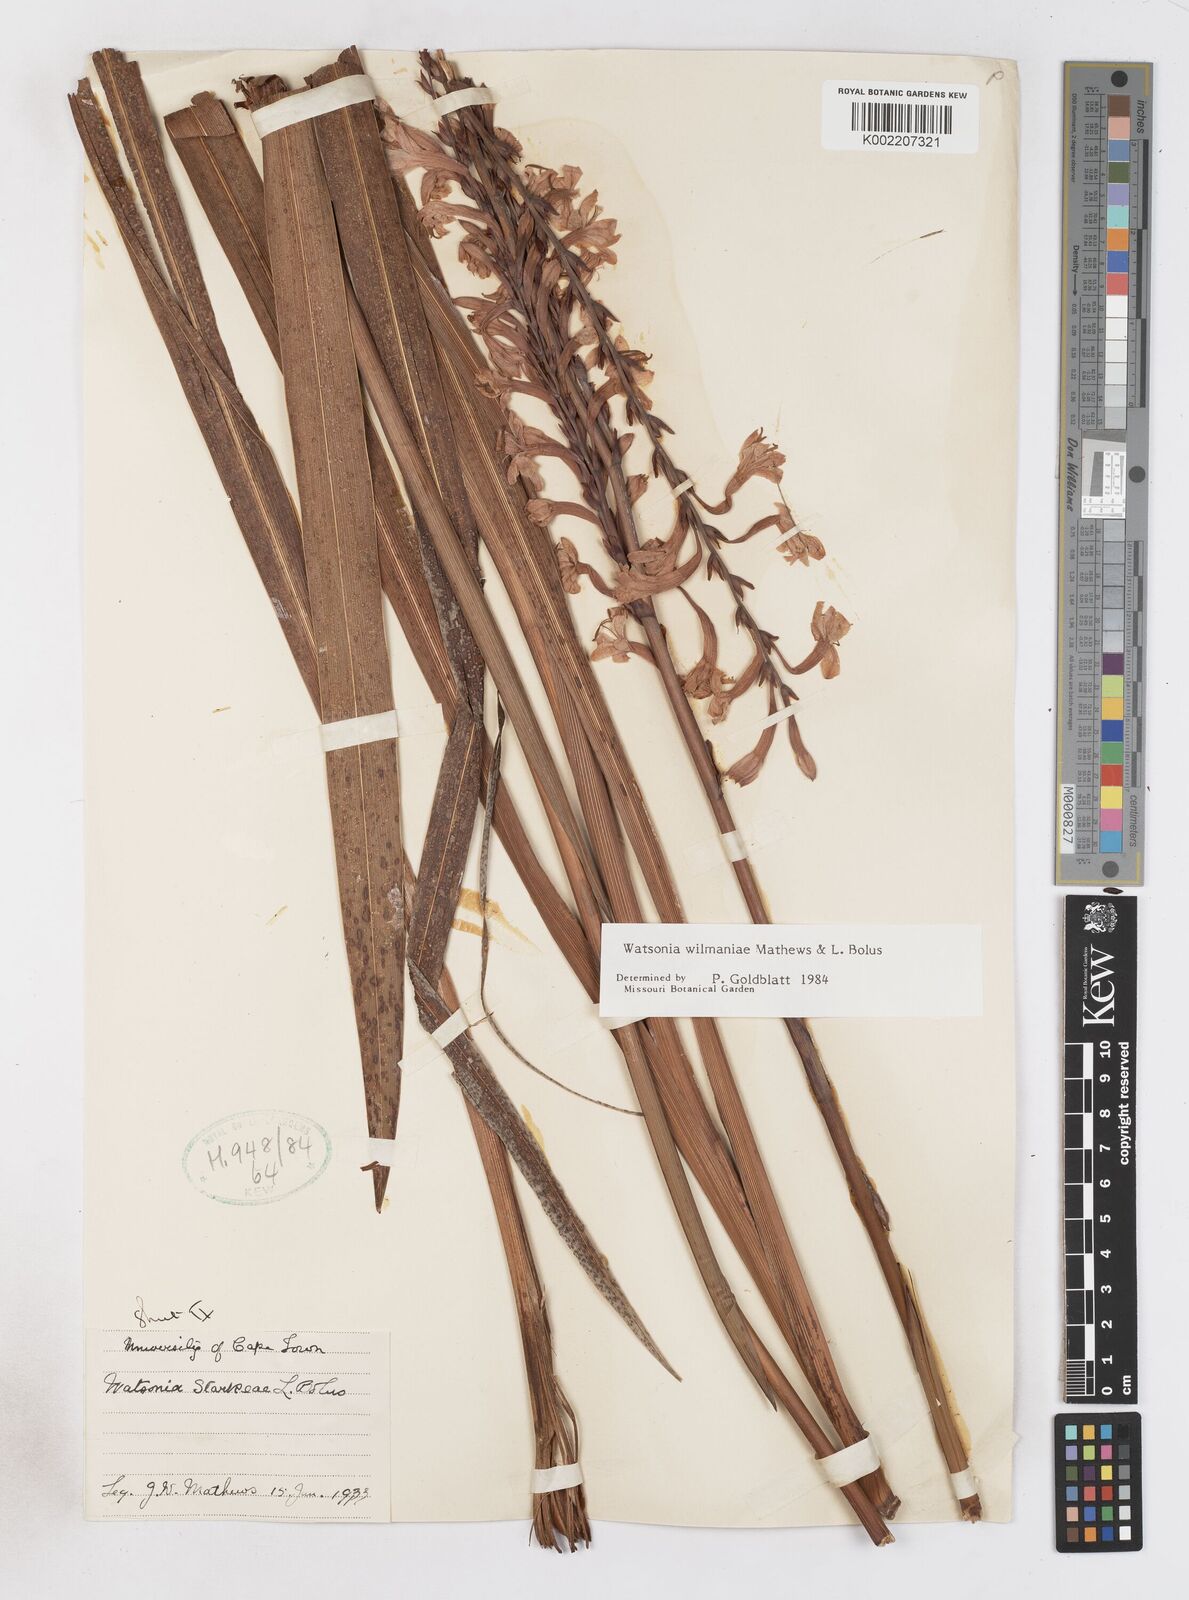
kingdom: Plantae
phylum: Tracheophyta
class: Liliopsida
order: Asparagales
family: Iridaceae
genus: Watsonia
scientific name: Watsonia wilmaniae
